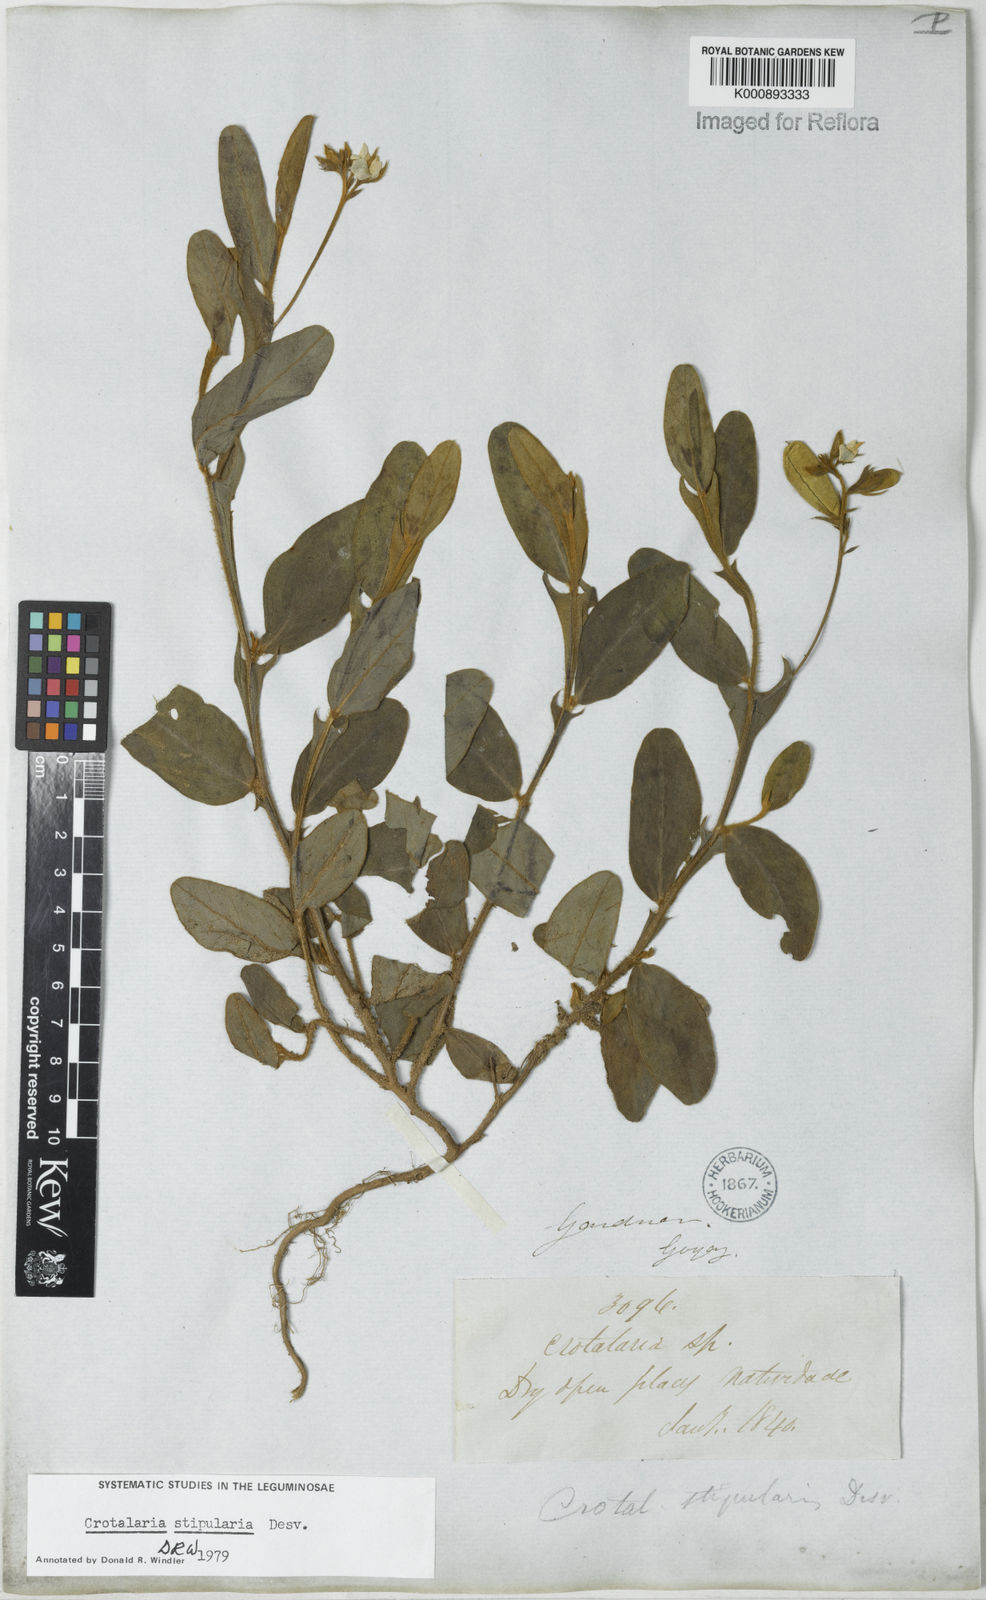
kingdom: Plantae
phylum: Tracheophyta
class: Magnoliopsida
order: Fabales
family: Fabaceae
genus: Crotalaria
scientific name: Crotalaria stipularia
